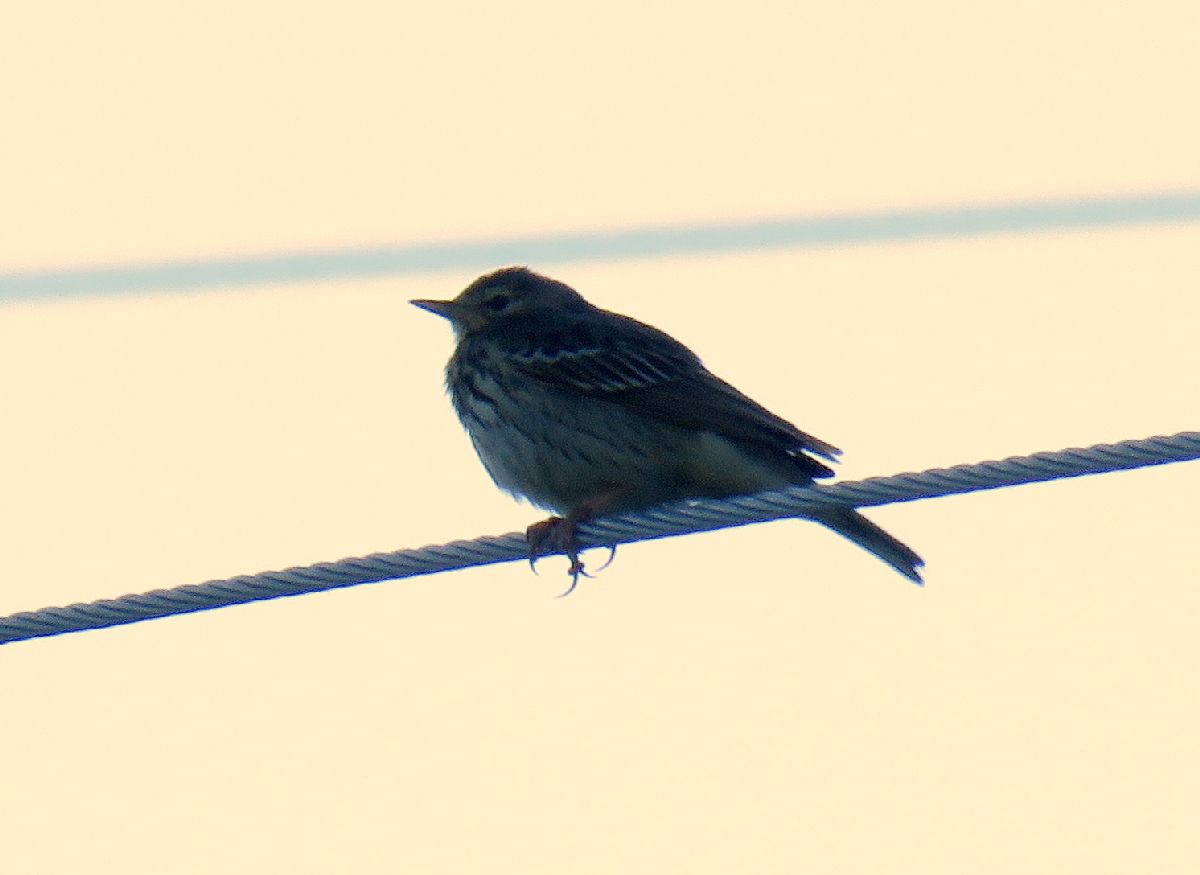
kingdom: Animalia
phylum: Chordata
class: Aves
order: Passeriformes
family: Motacillidae
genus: Anthus
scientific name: Anthus trivialis
